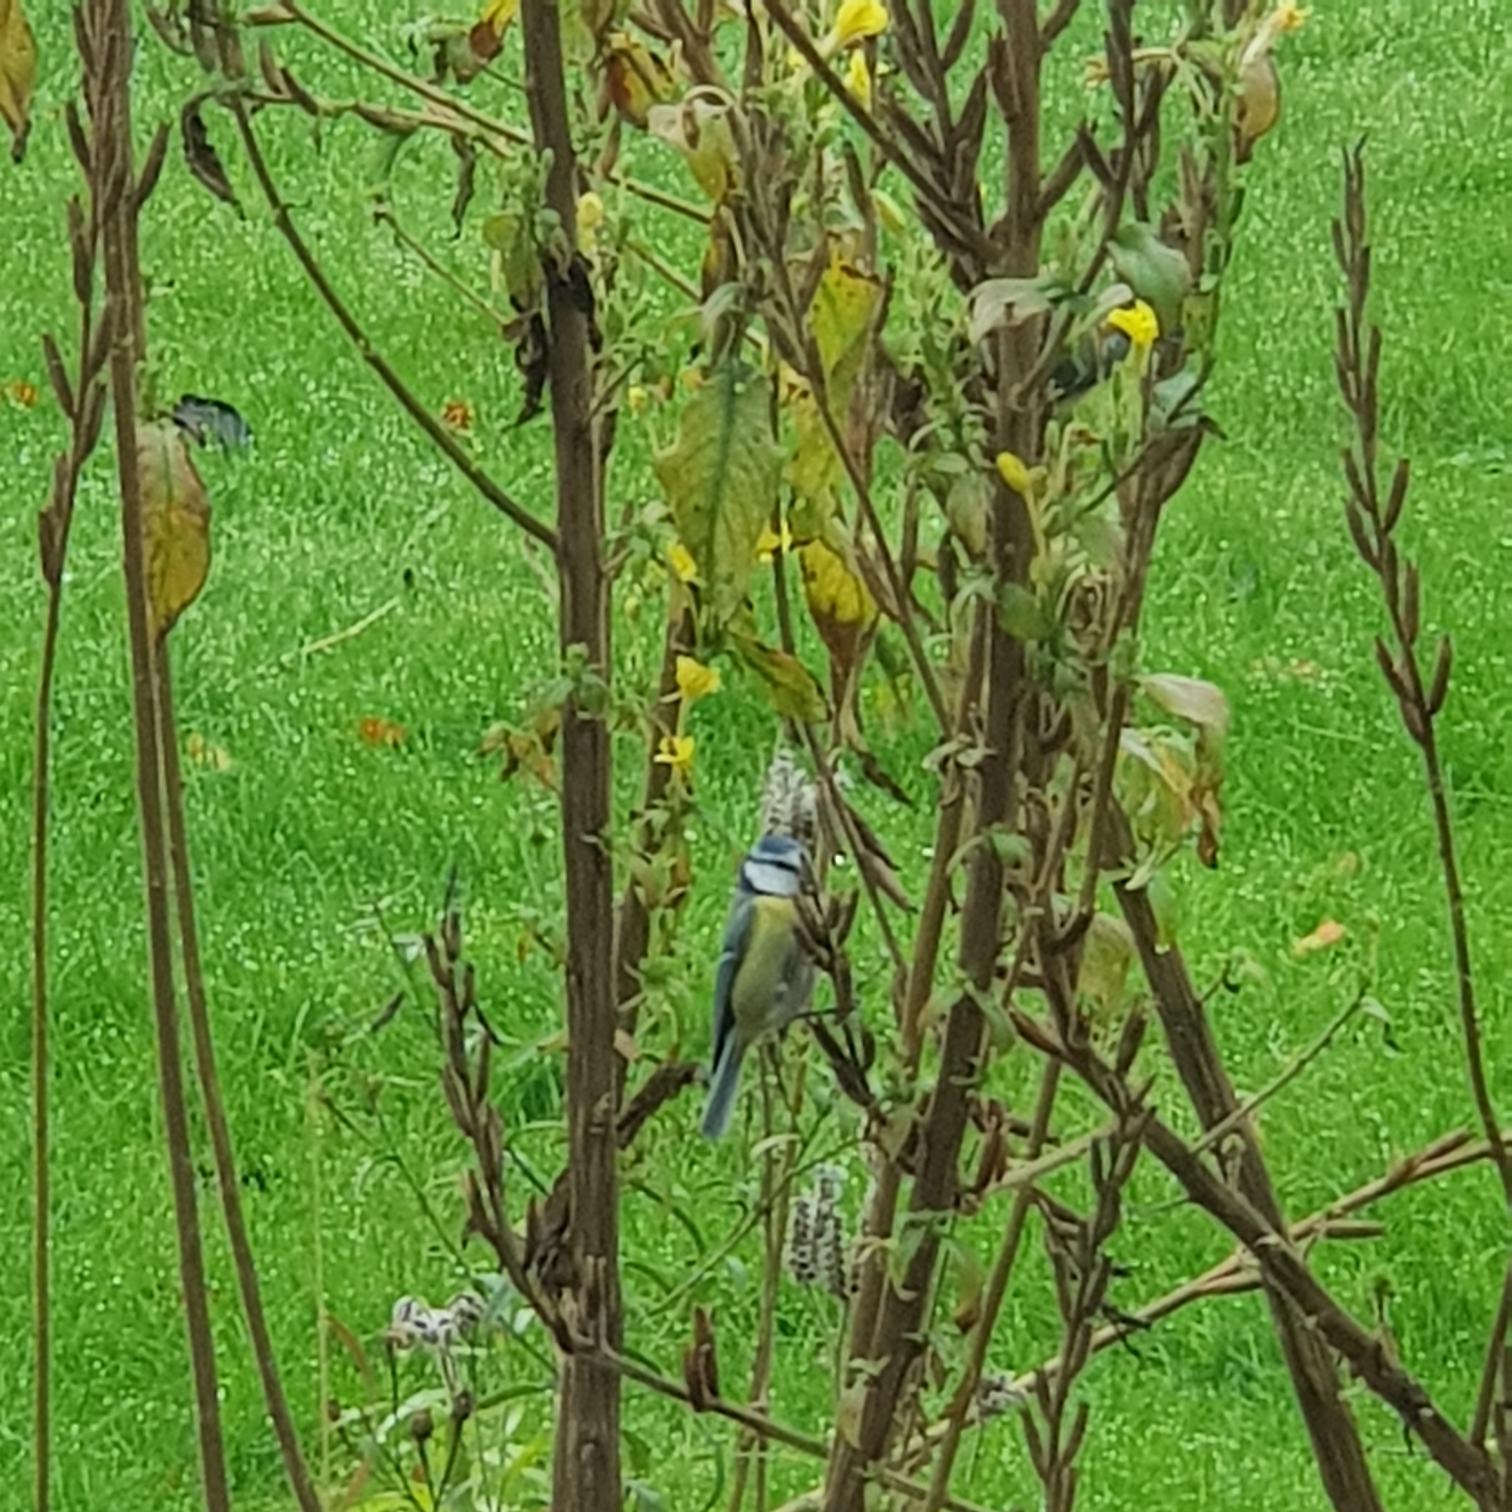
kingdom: Animalia
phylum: Chordata
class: Aves
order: Passeriformes
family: Paridae
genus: Cyanistes
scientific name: Cyanistes caeruleus
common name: Blåmejse
